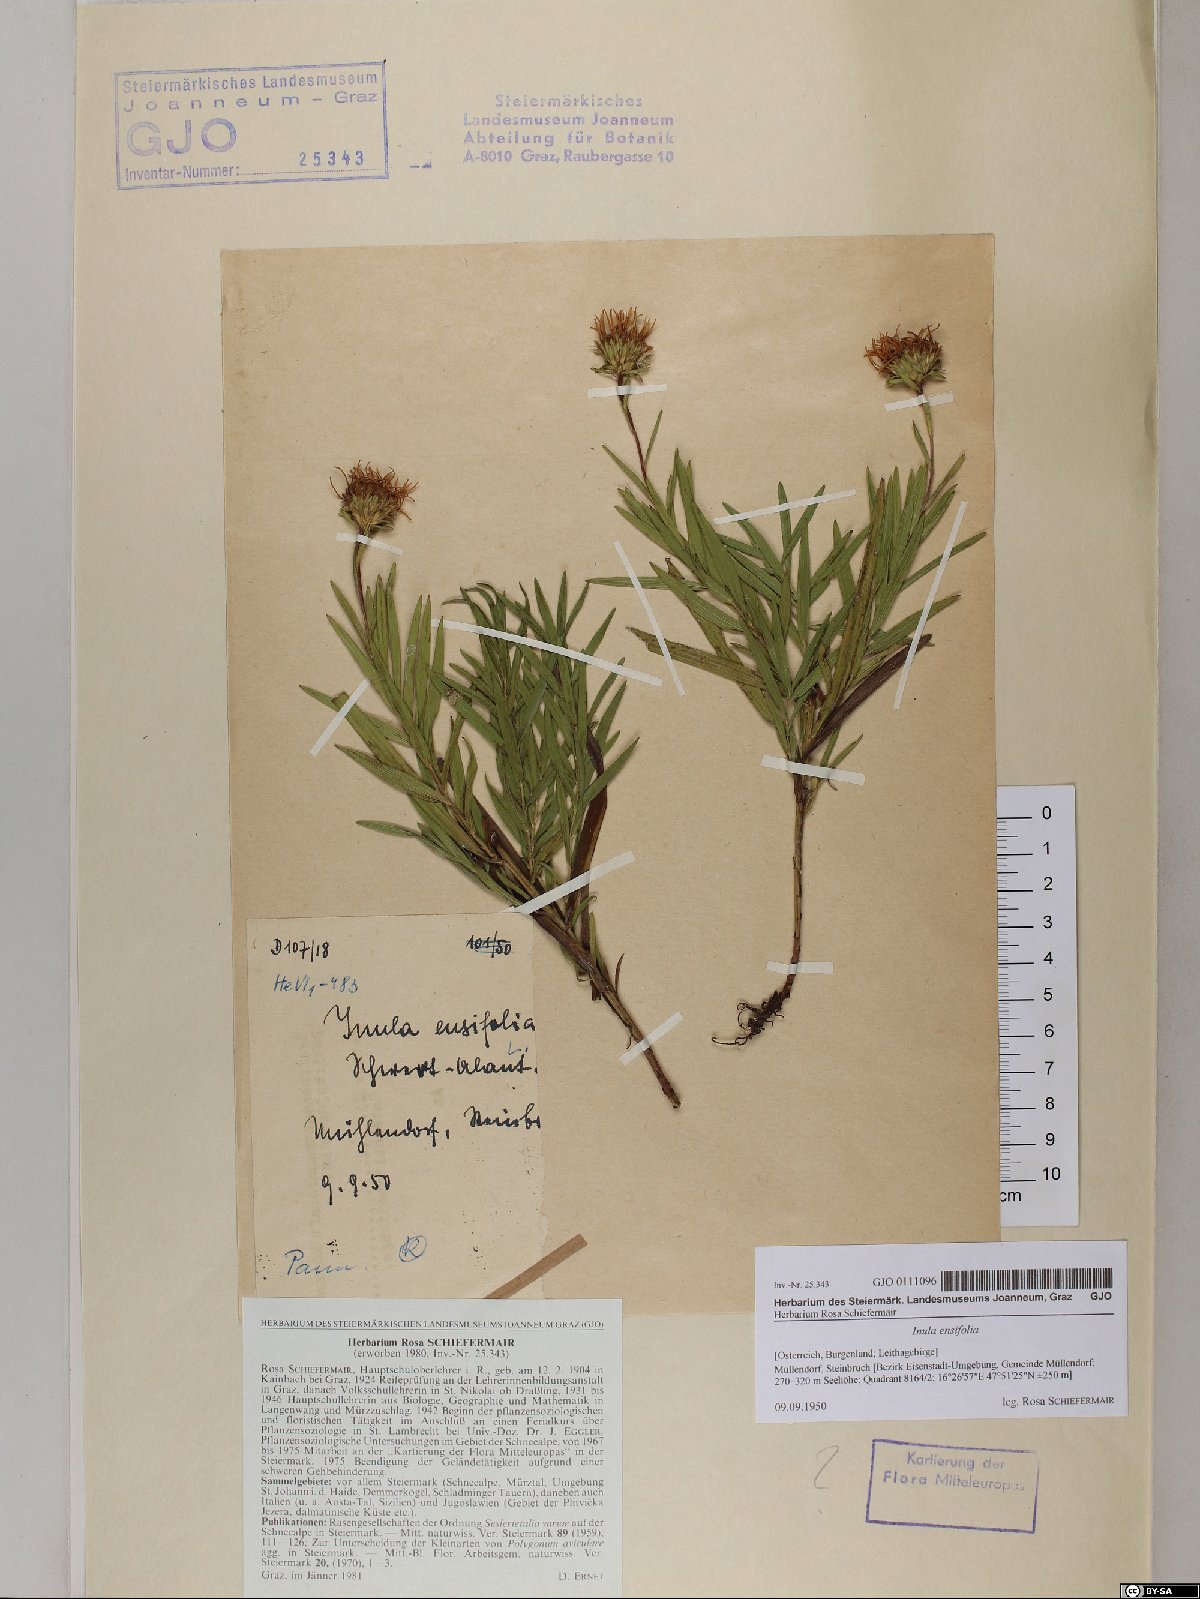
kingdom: Plantae
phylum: Tracheophyta
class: Magnoliopsida
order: Asterales
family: Asteraceae
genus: Pentanema
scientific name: Pentanema ensifolium
